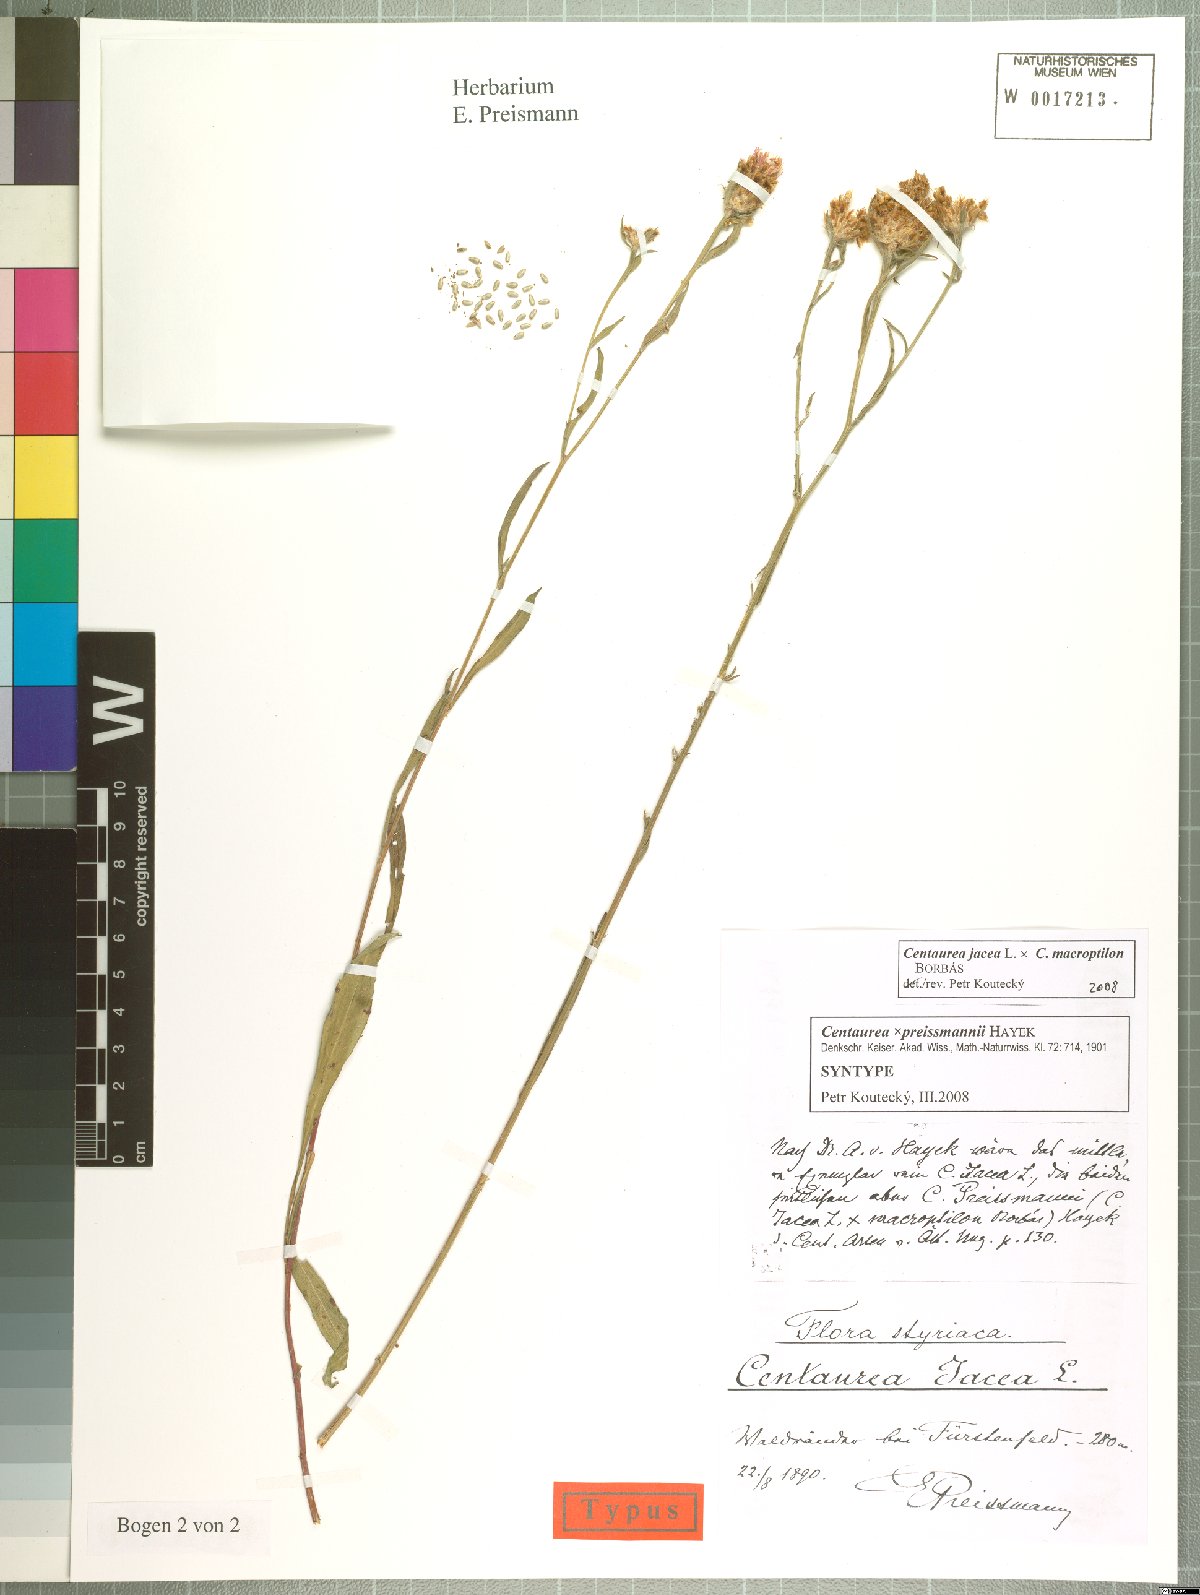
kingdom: Plantae
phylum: Tracheophyta
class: Magnoliopsida
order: Asterales
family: Asteraceae
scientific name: Asteraceae
